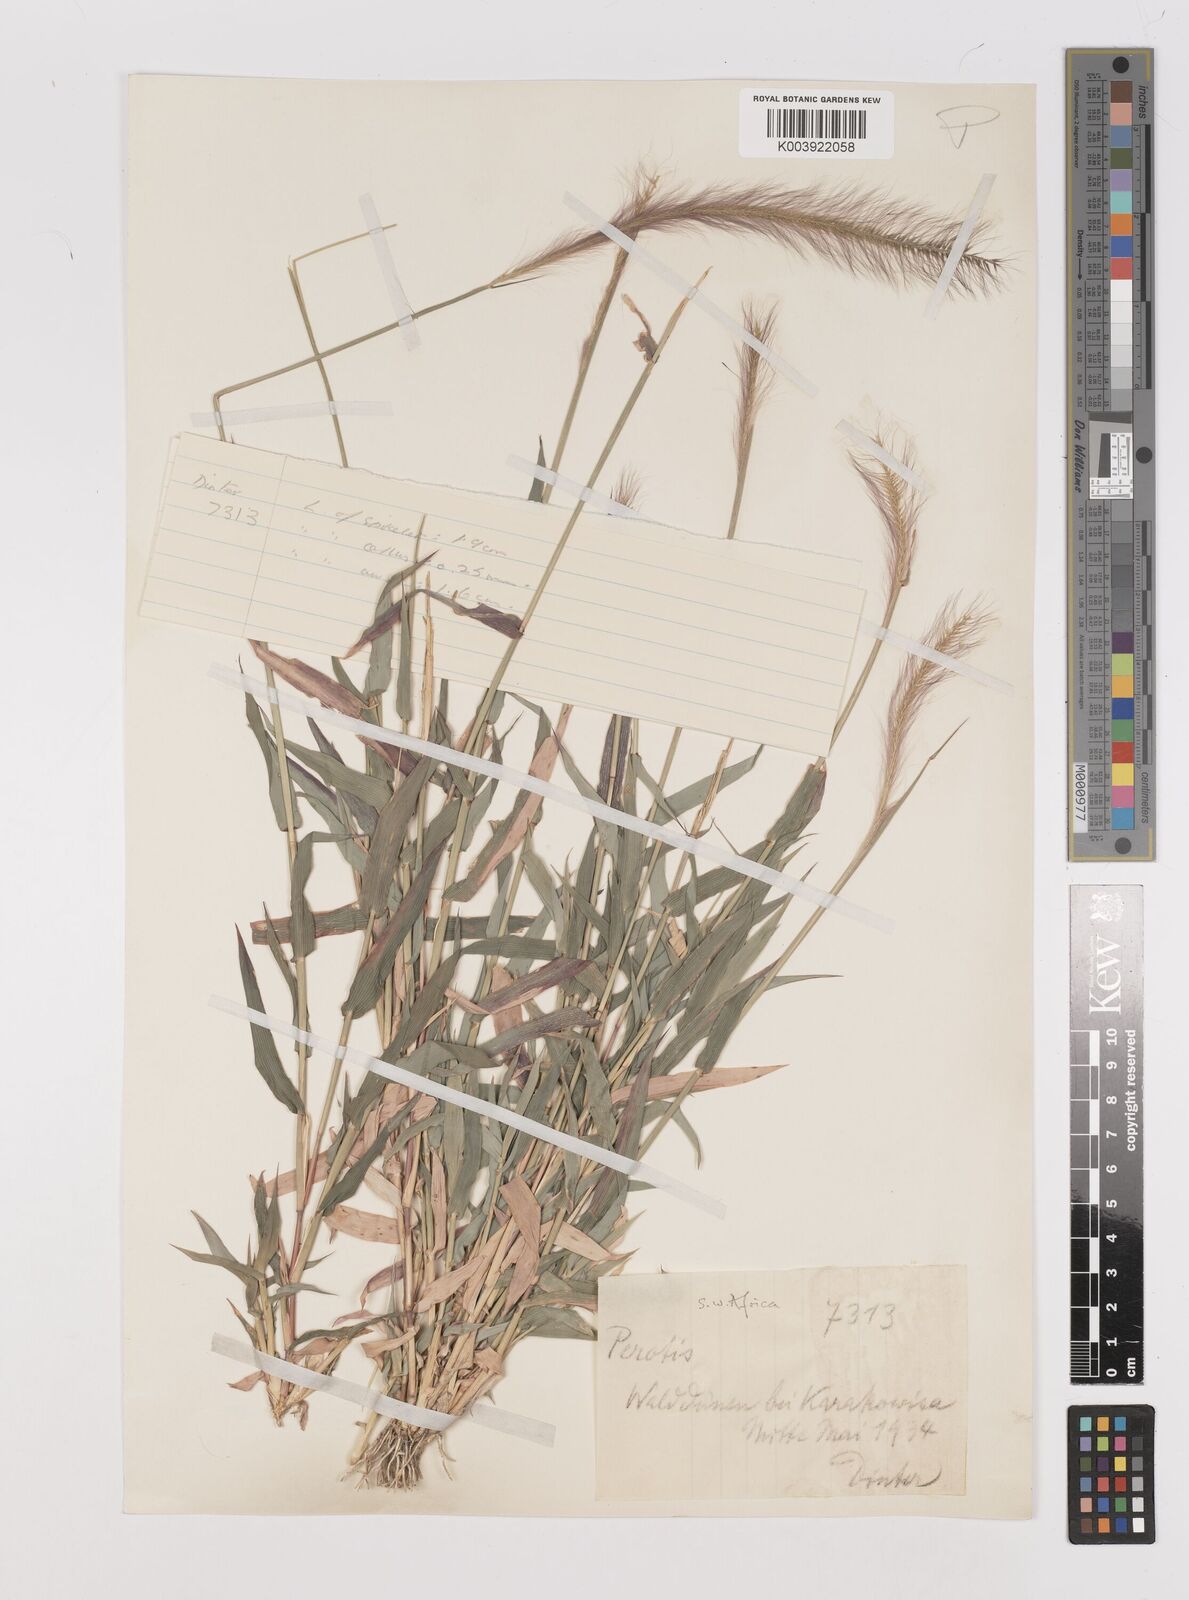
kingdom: Plantae
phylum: Tracheophyta
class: Liliopsida
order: Poales
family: Poaceae
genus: Perotis
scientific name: Perotis patens
